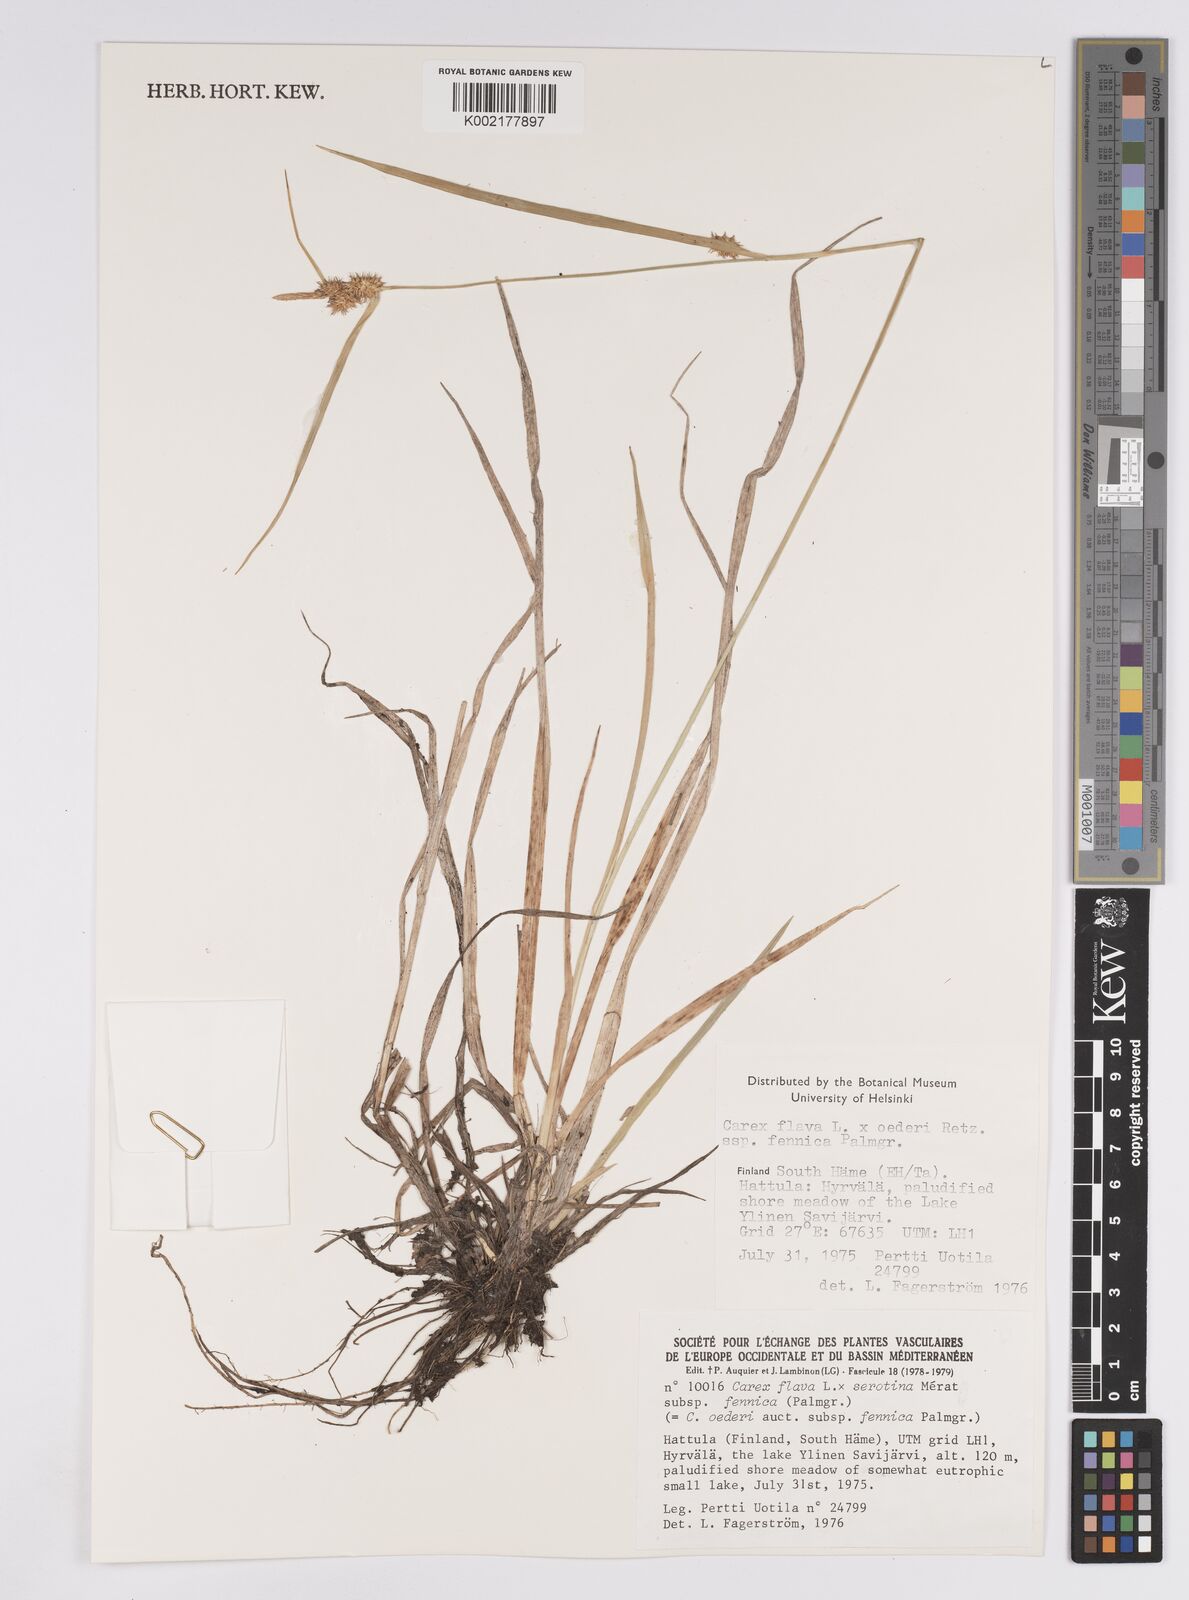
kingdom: Plantae
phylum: Tracheophyta
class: Liliopsida
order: Poales
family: Cyperaceae
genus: Carex
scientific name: Carex flava
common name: Large yellow-sedge
